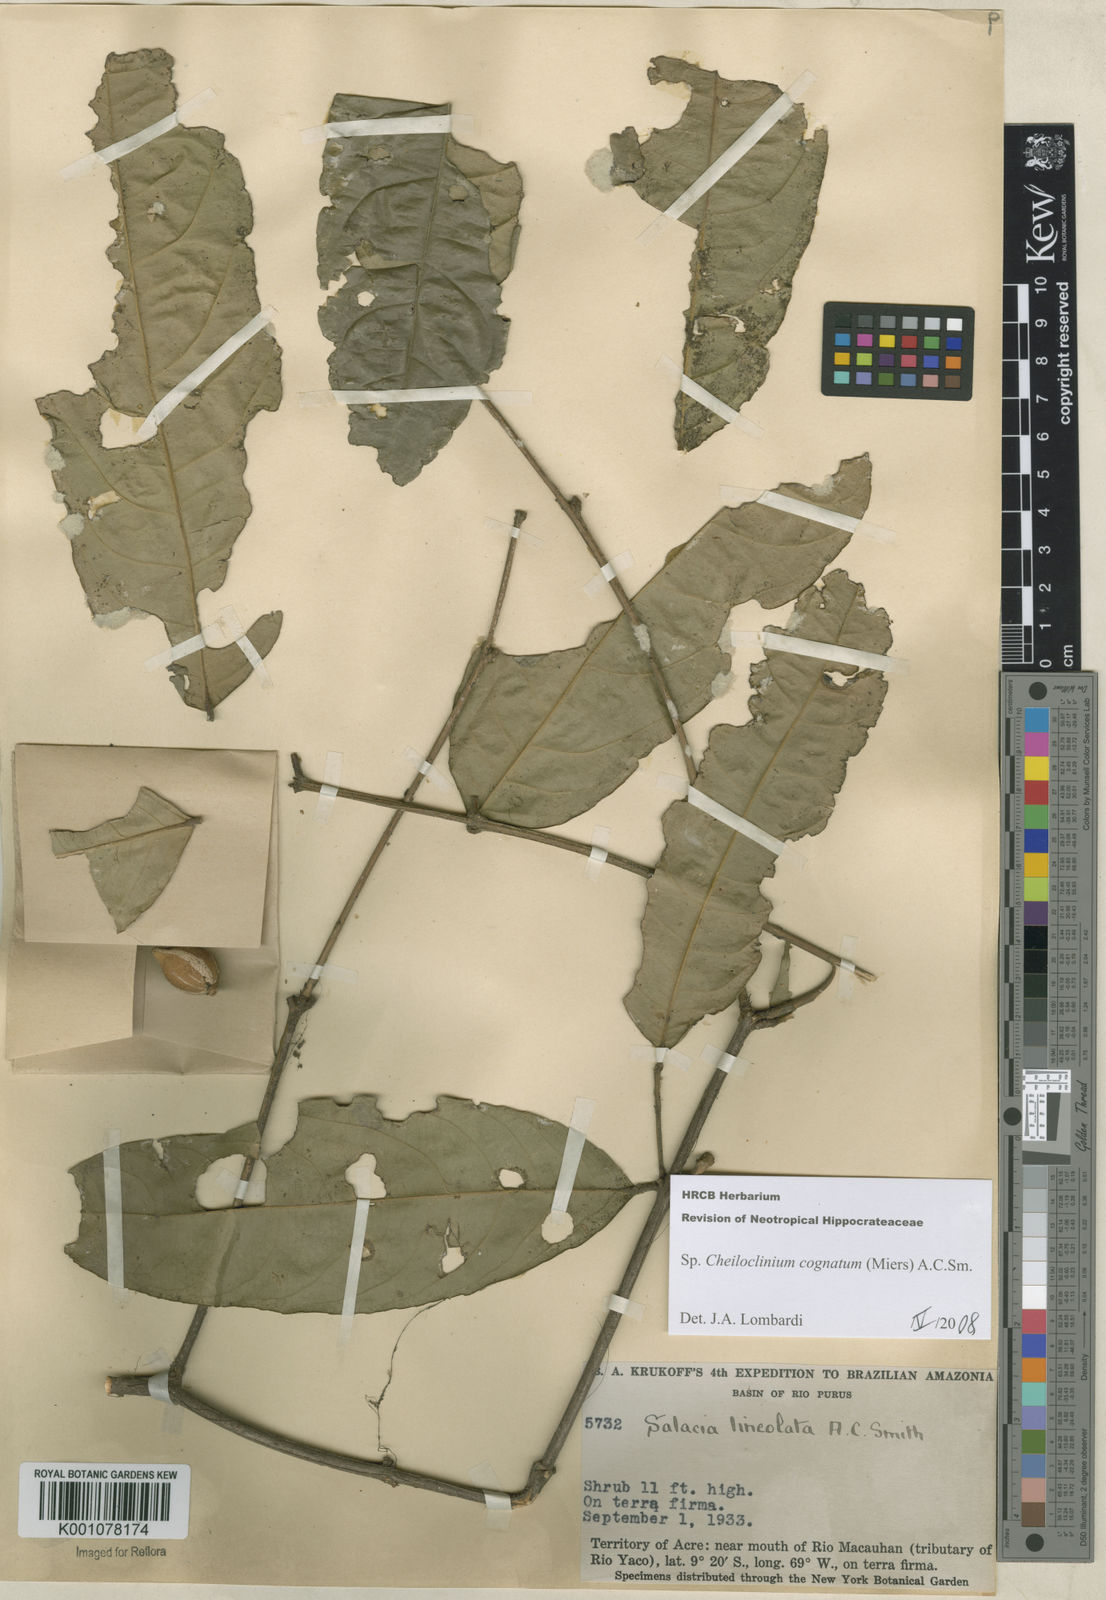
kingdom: Plantae
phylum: Tracheophyta
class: Magnoliopsida
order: Celastrales
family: Celastraceae
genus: Cheiloclinium
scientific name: Cheiloclinium cognatum
